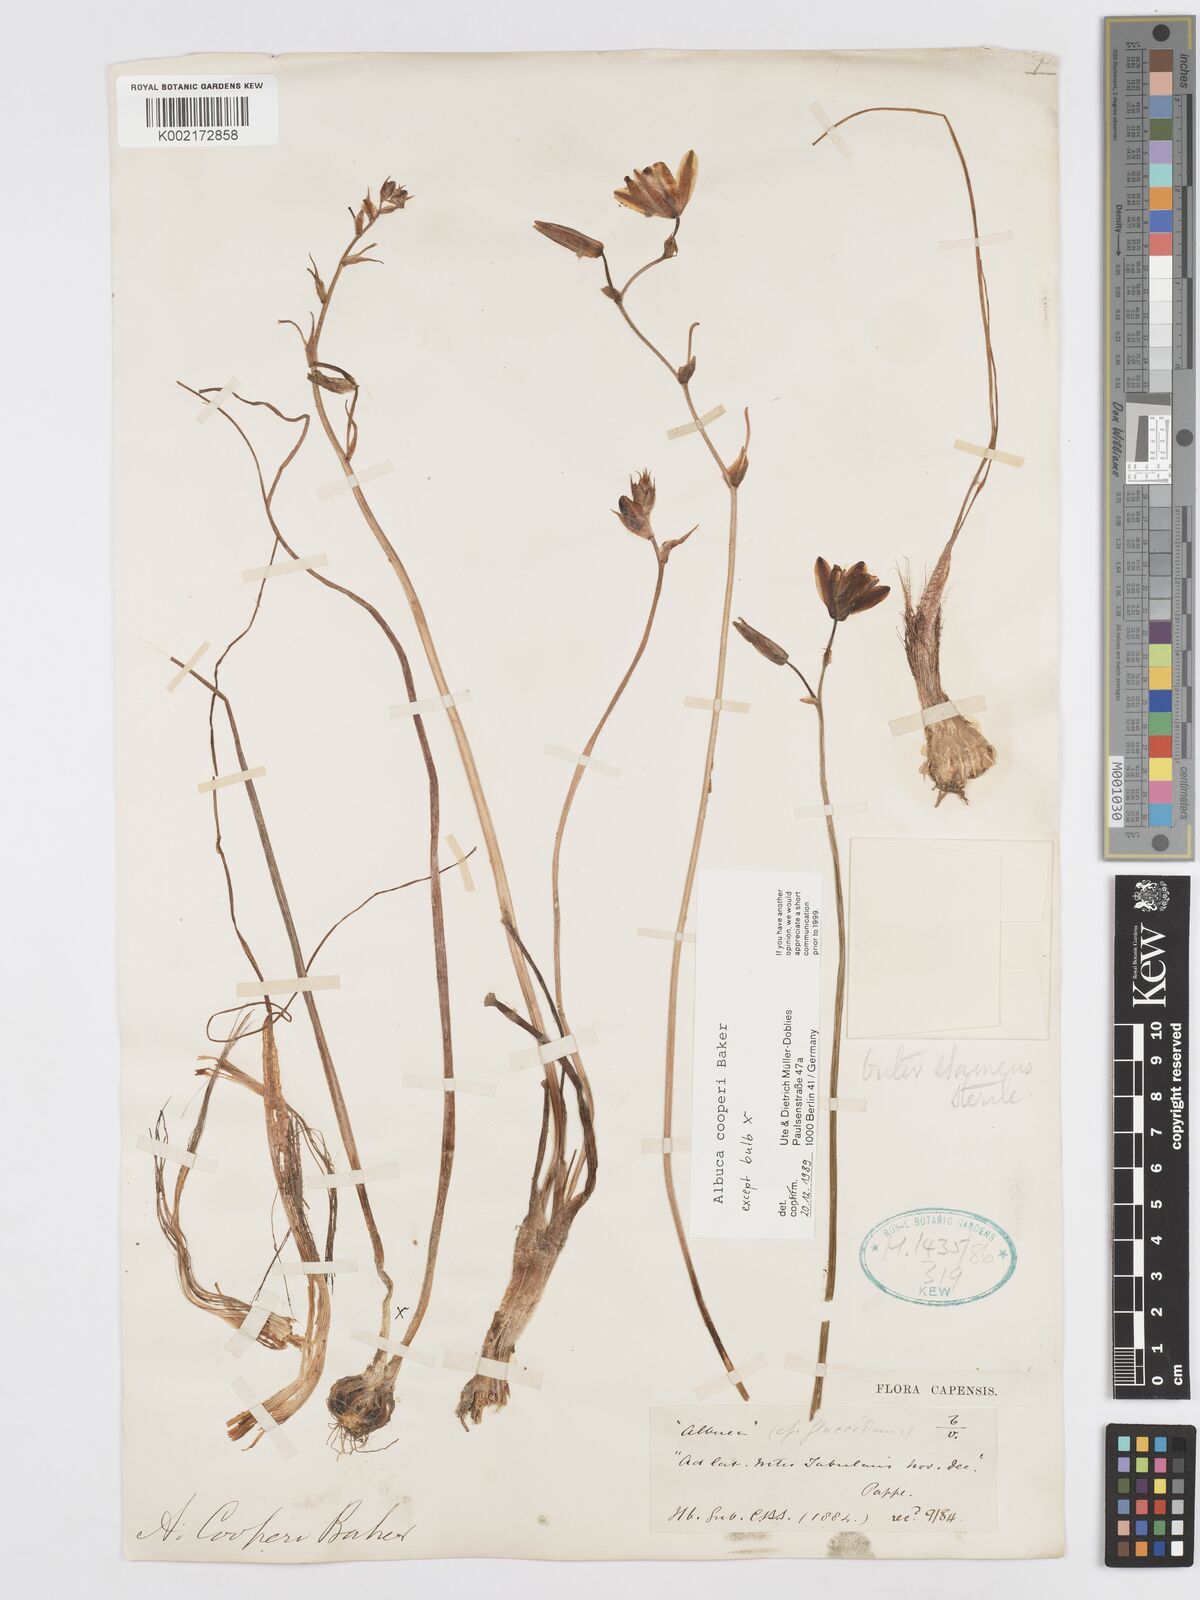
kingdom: Plantae
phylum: Tracheophyta
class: Liliopsida
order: Asparagales
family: Asparagaceae
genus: Albuca
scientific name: Albuca cooperi
